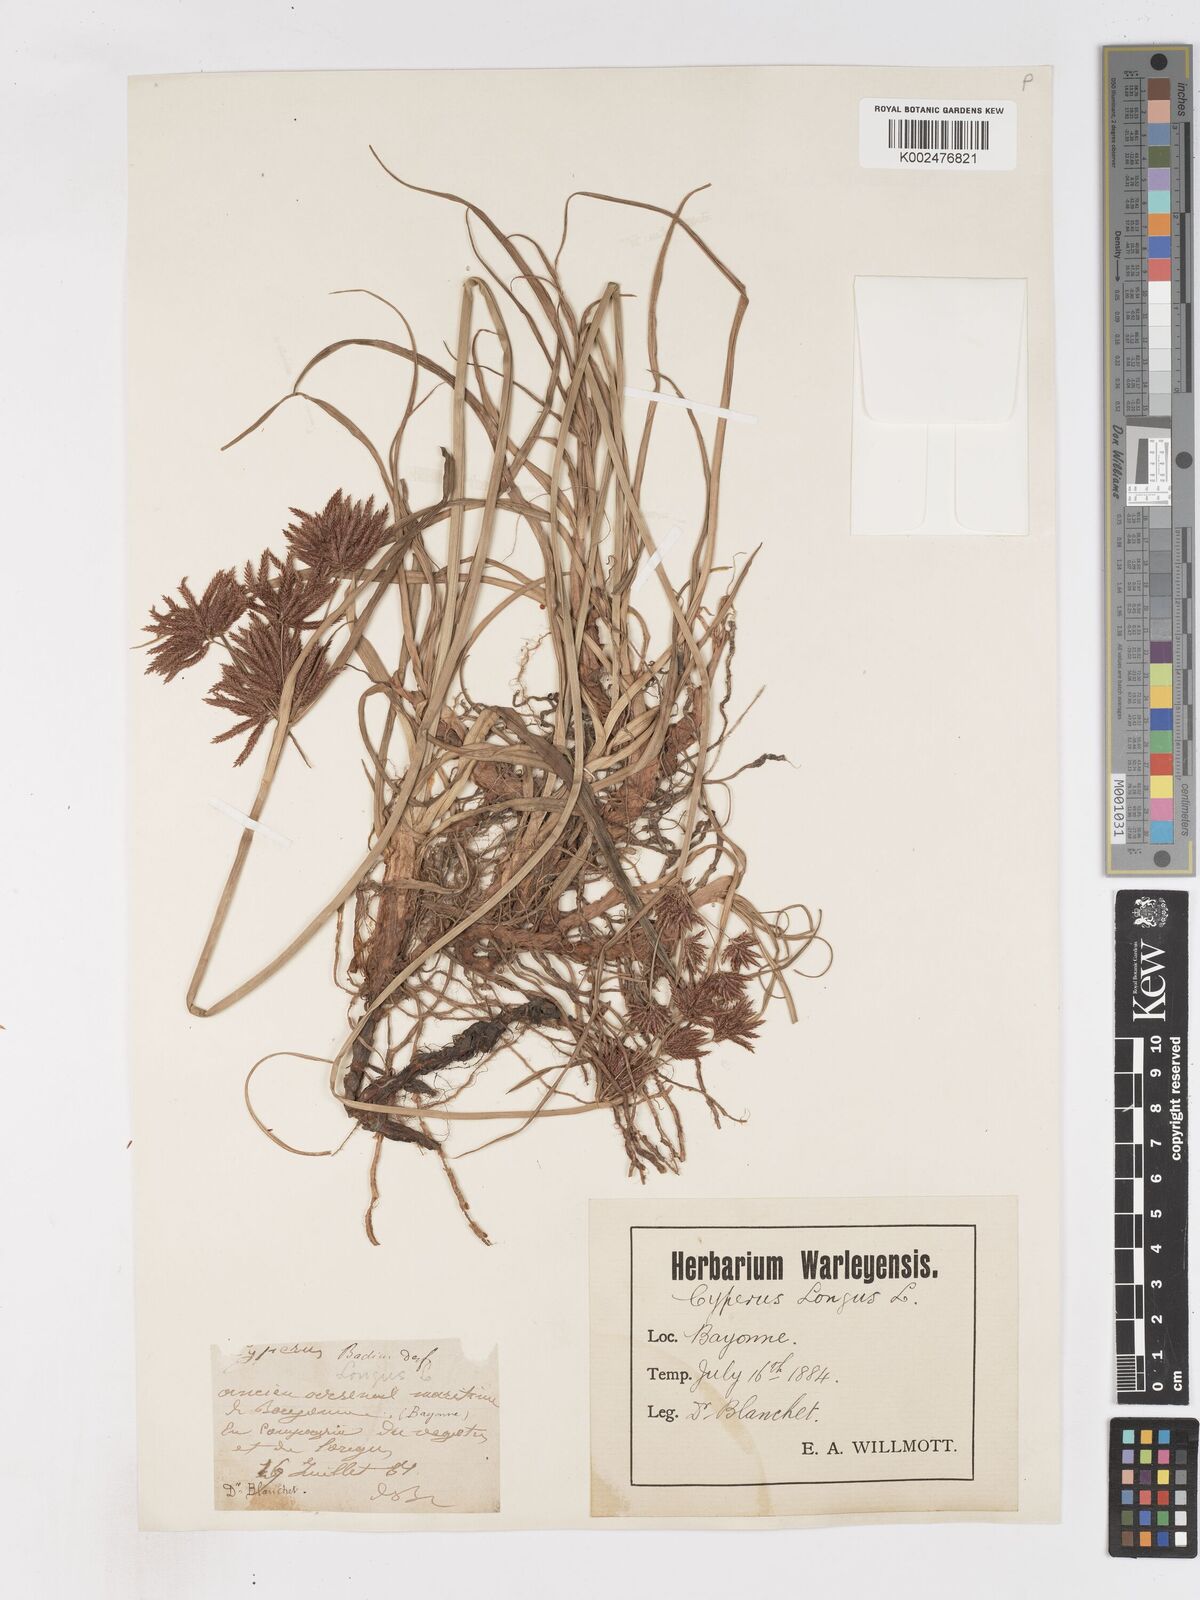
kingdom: Plantae
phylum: Tracheophyta
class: Liliopsida
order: Poales
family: Cyperaceae
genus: Cyperus
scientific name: Cyperus longus
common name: Galingale
